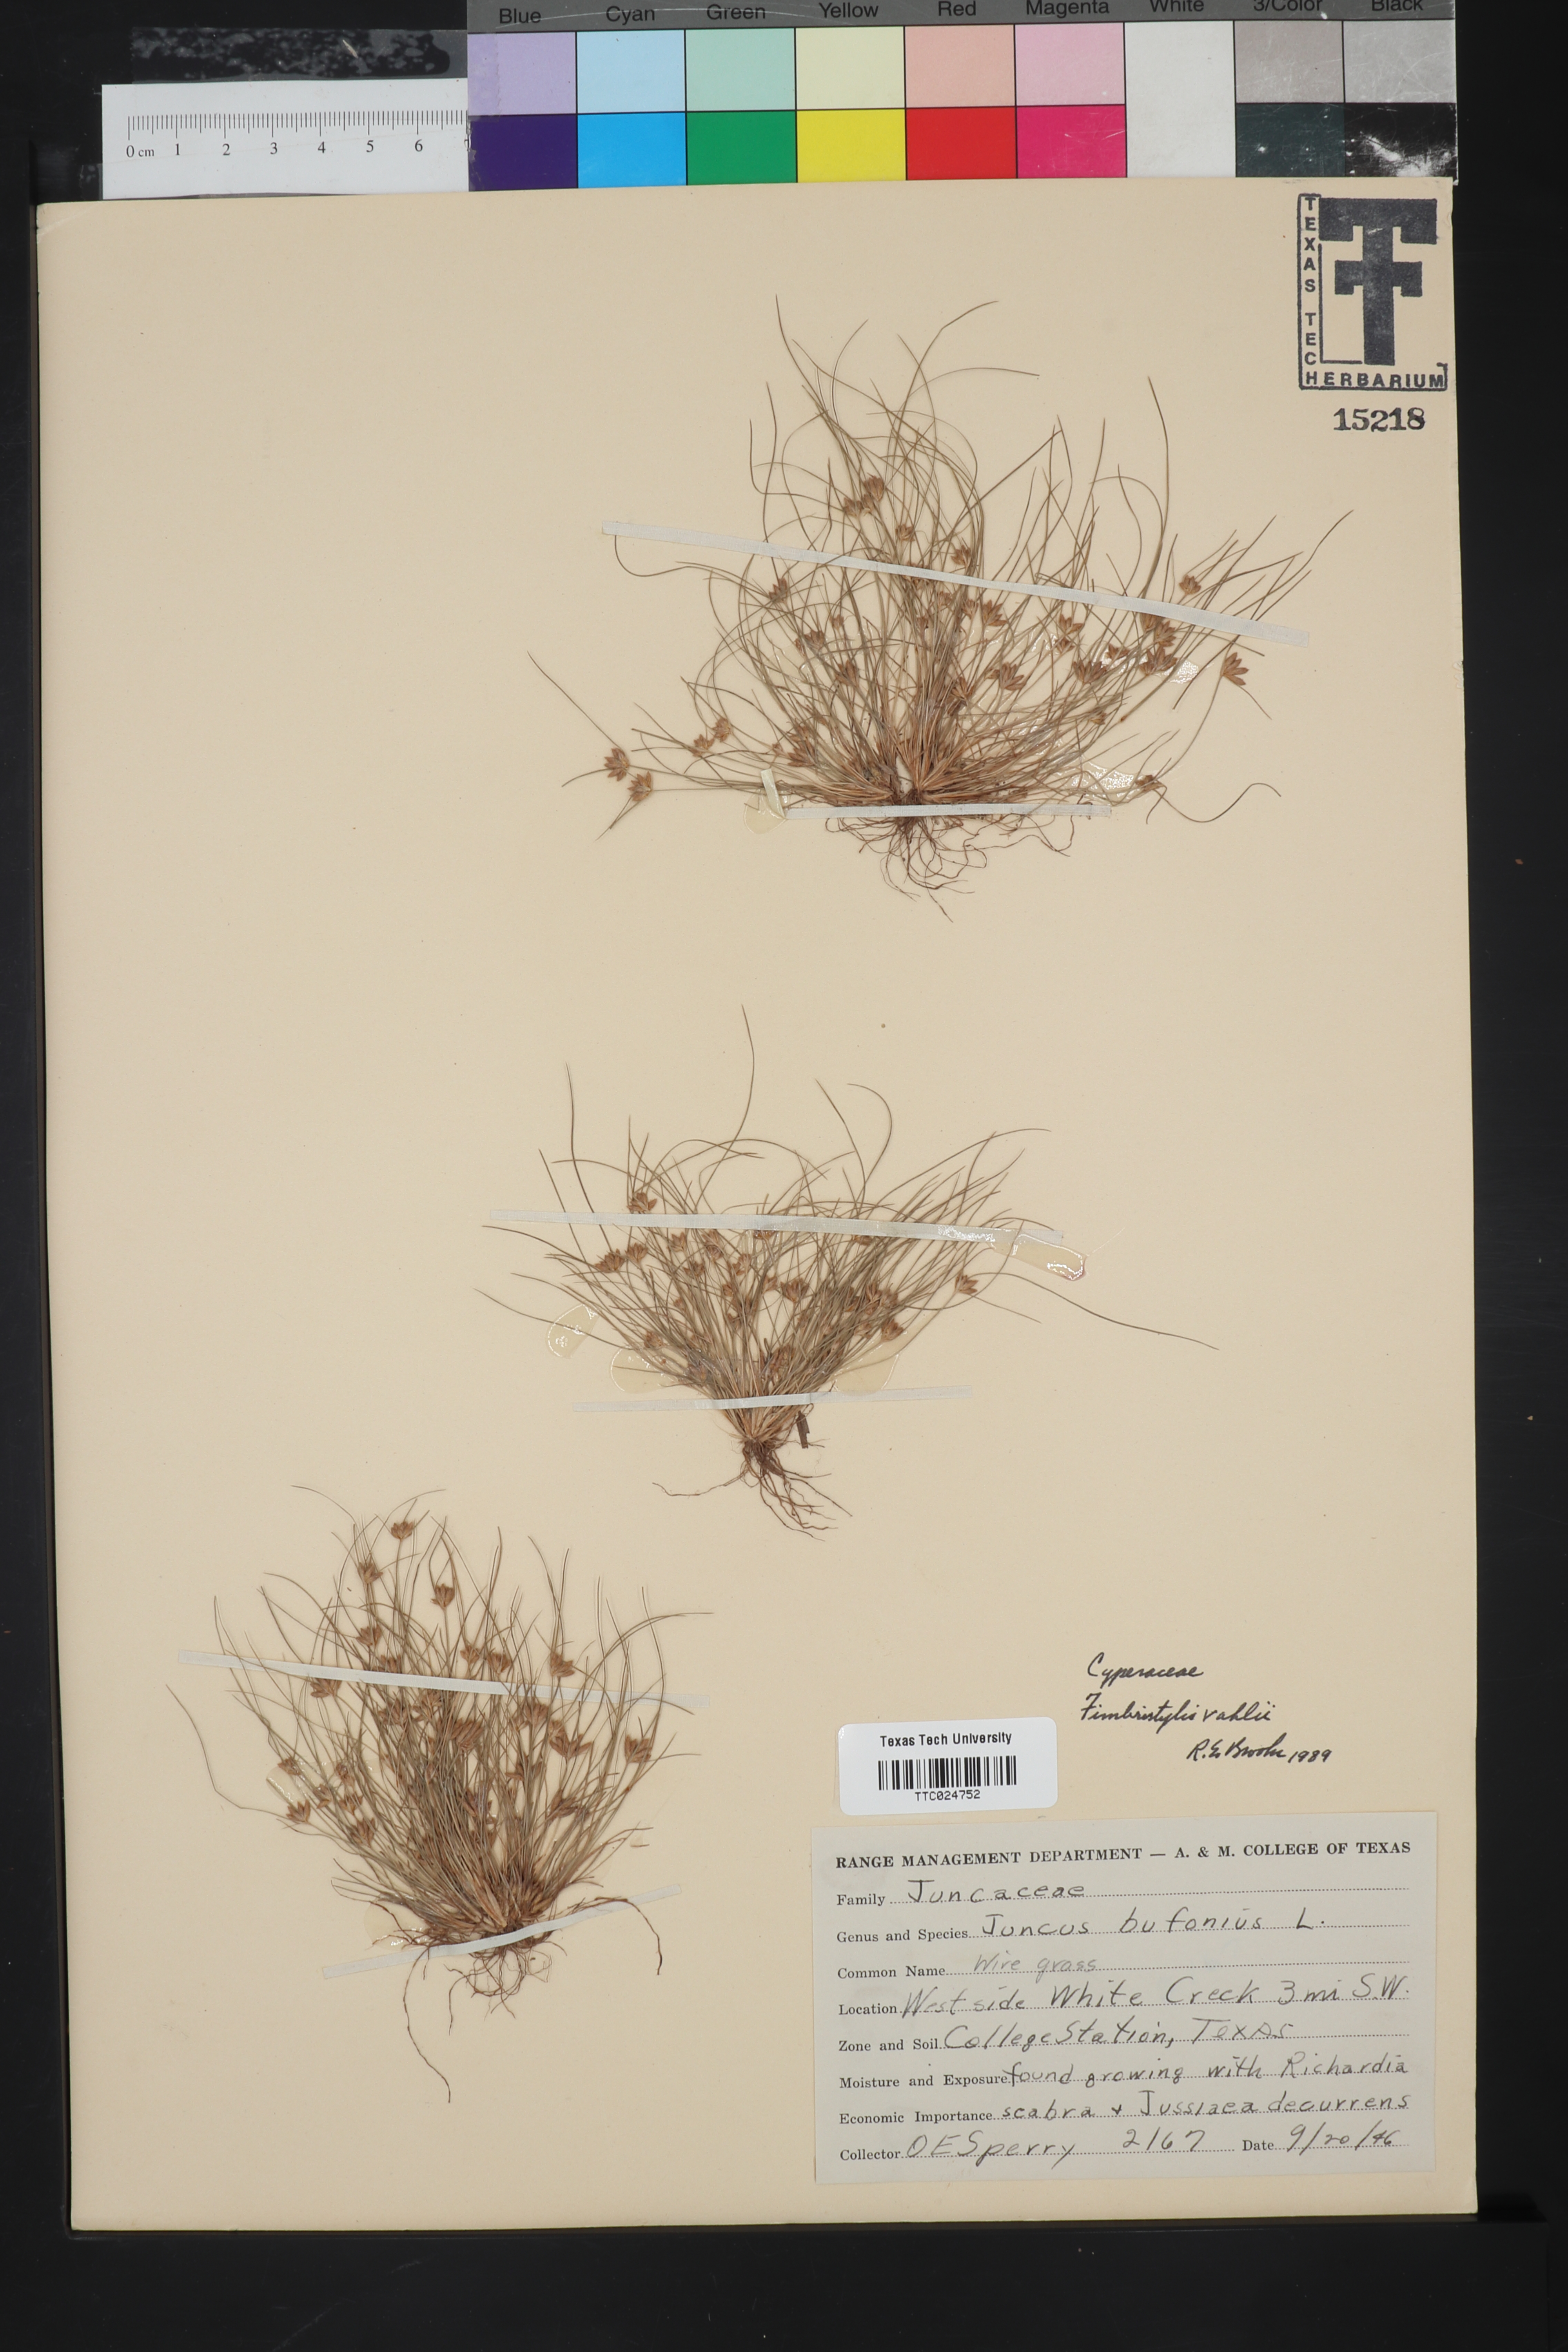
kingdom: Plantae
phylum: Tracheophyta
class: Liliopsida
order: Poales
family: Juncaceae
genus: Juncus
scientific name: Juncus bufonius
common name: Toad rush
